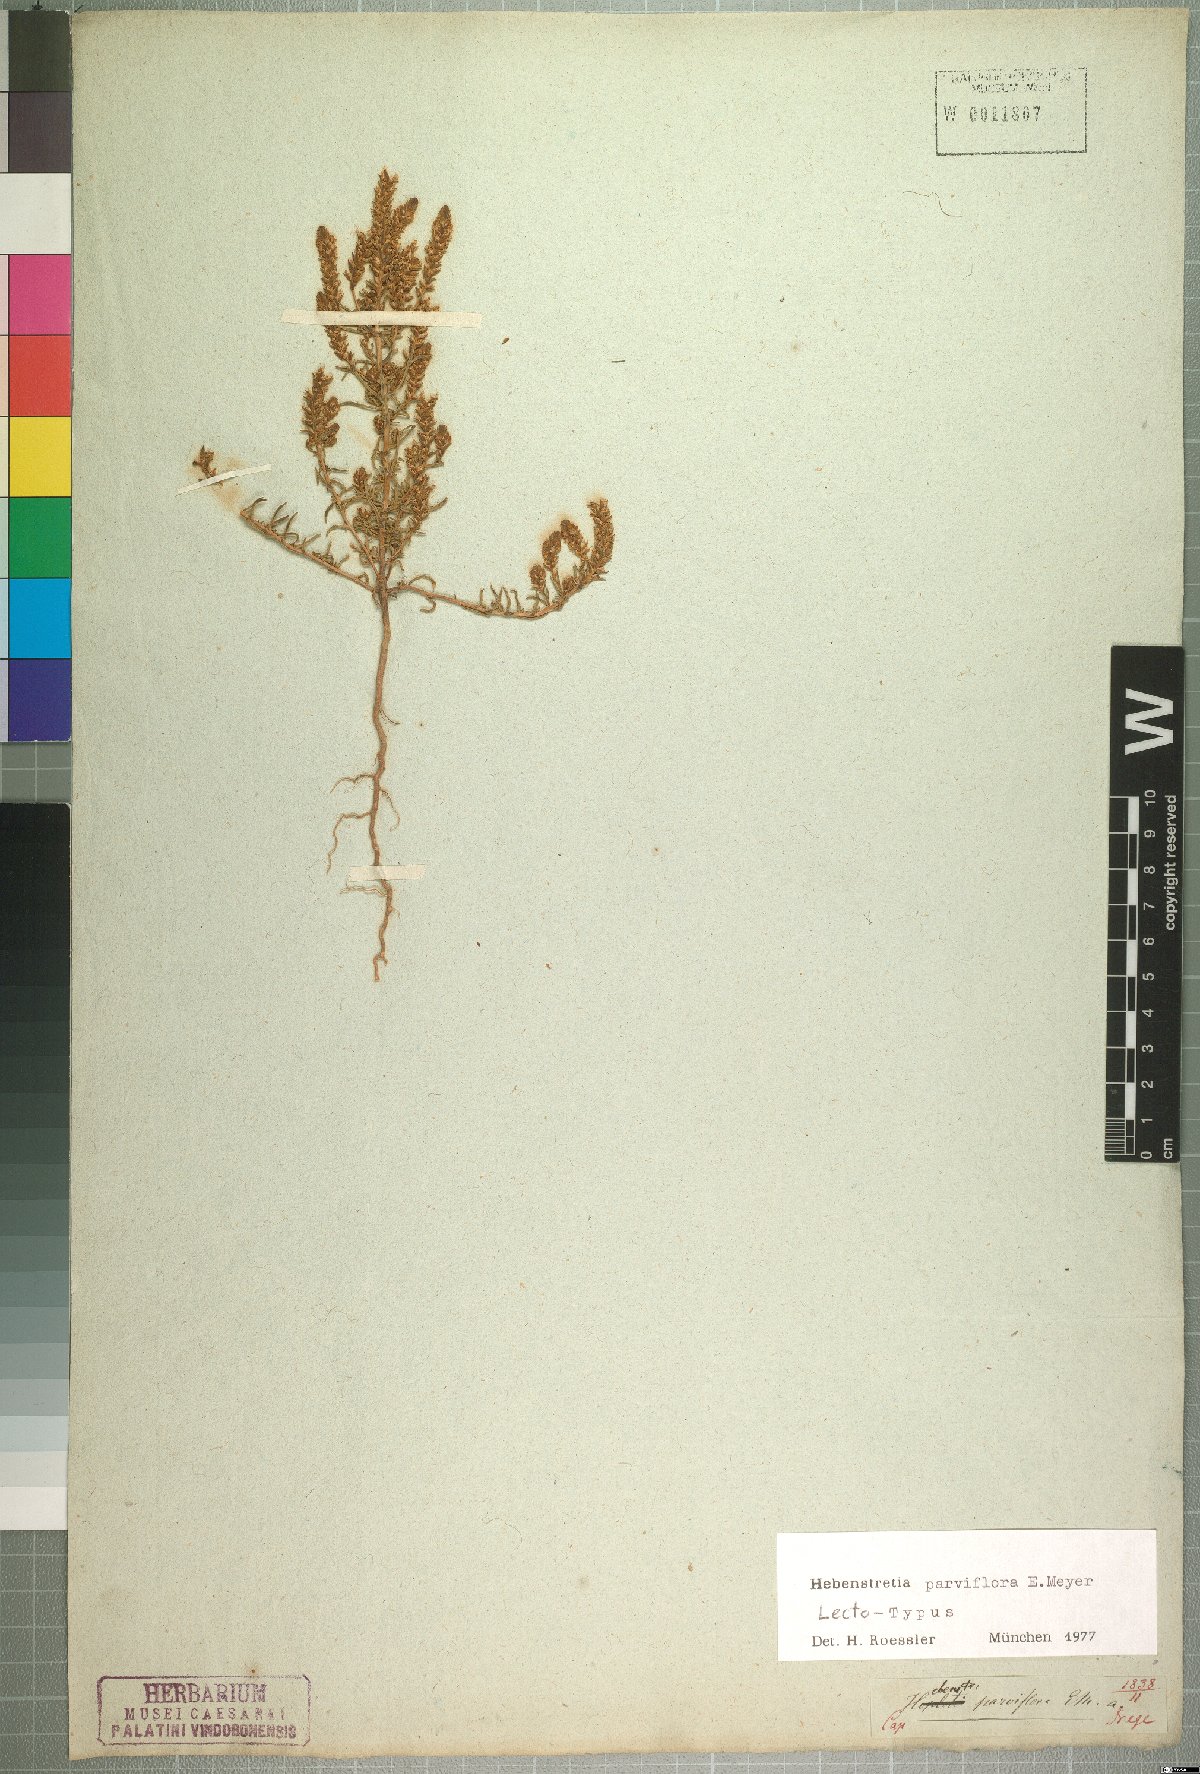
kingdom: Plantae
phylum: Tracheophyta
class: Magnoliopsida
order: Lamiales
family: Scrophulariaceae
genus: Hebenstretia
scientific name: Hebenstretia parviflora
